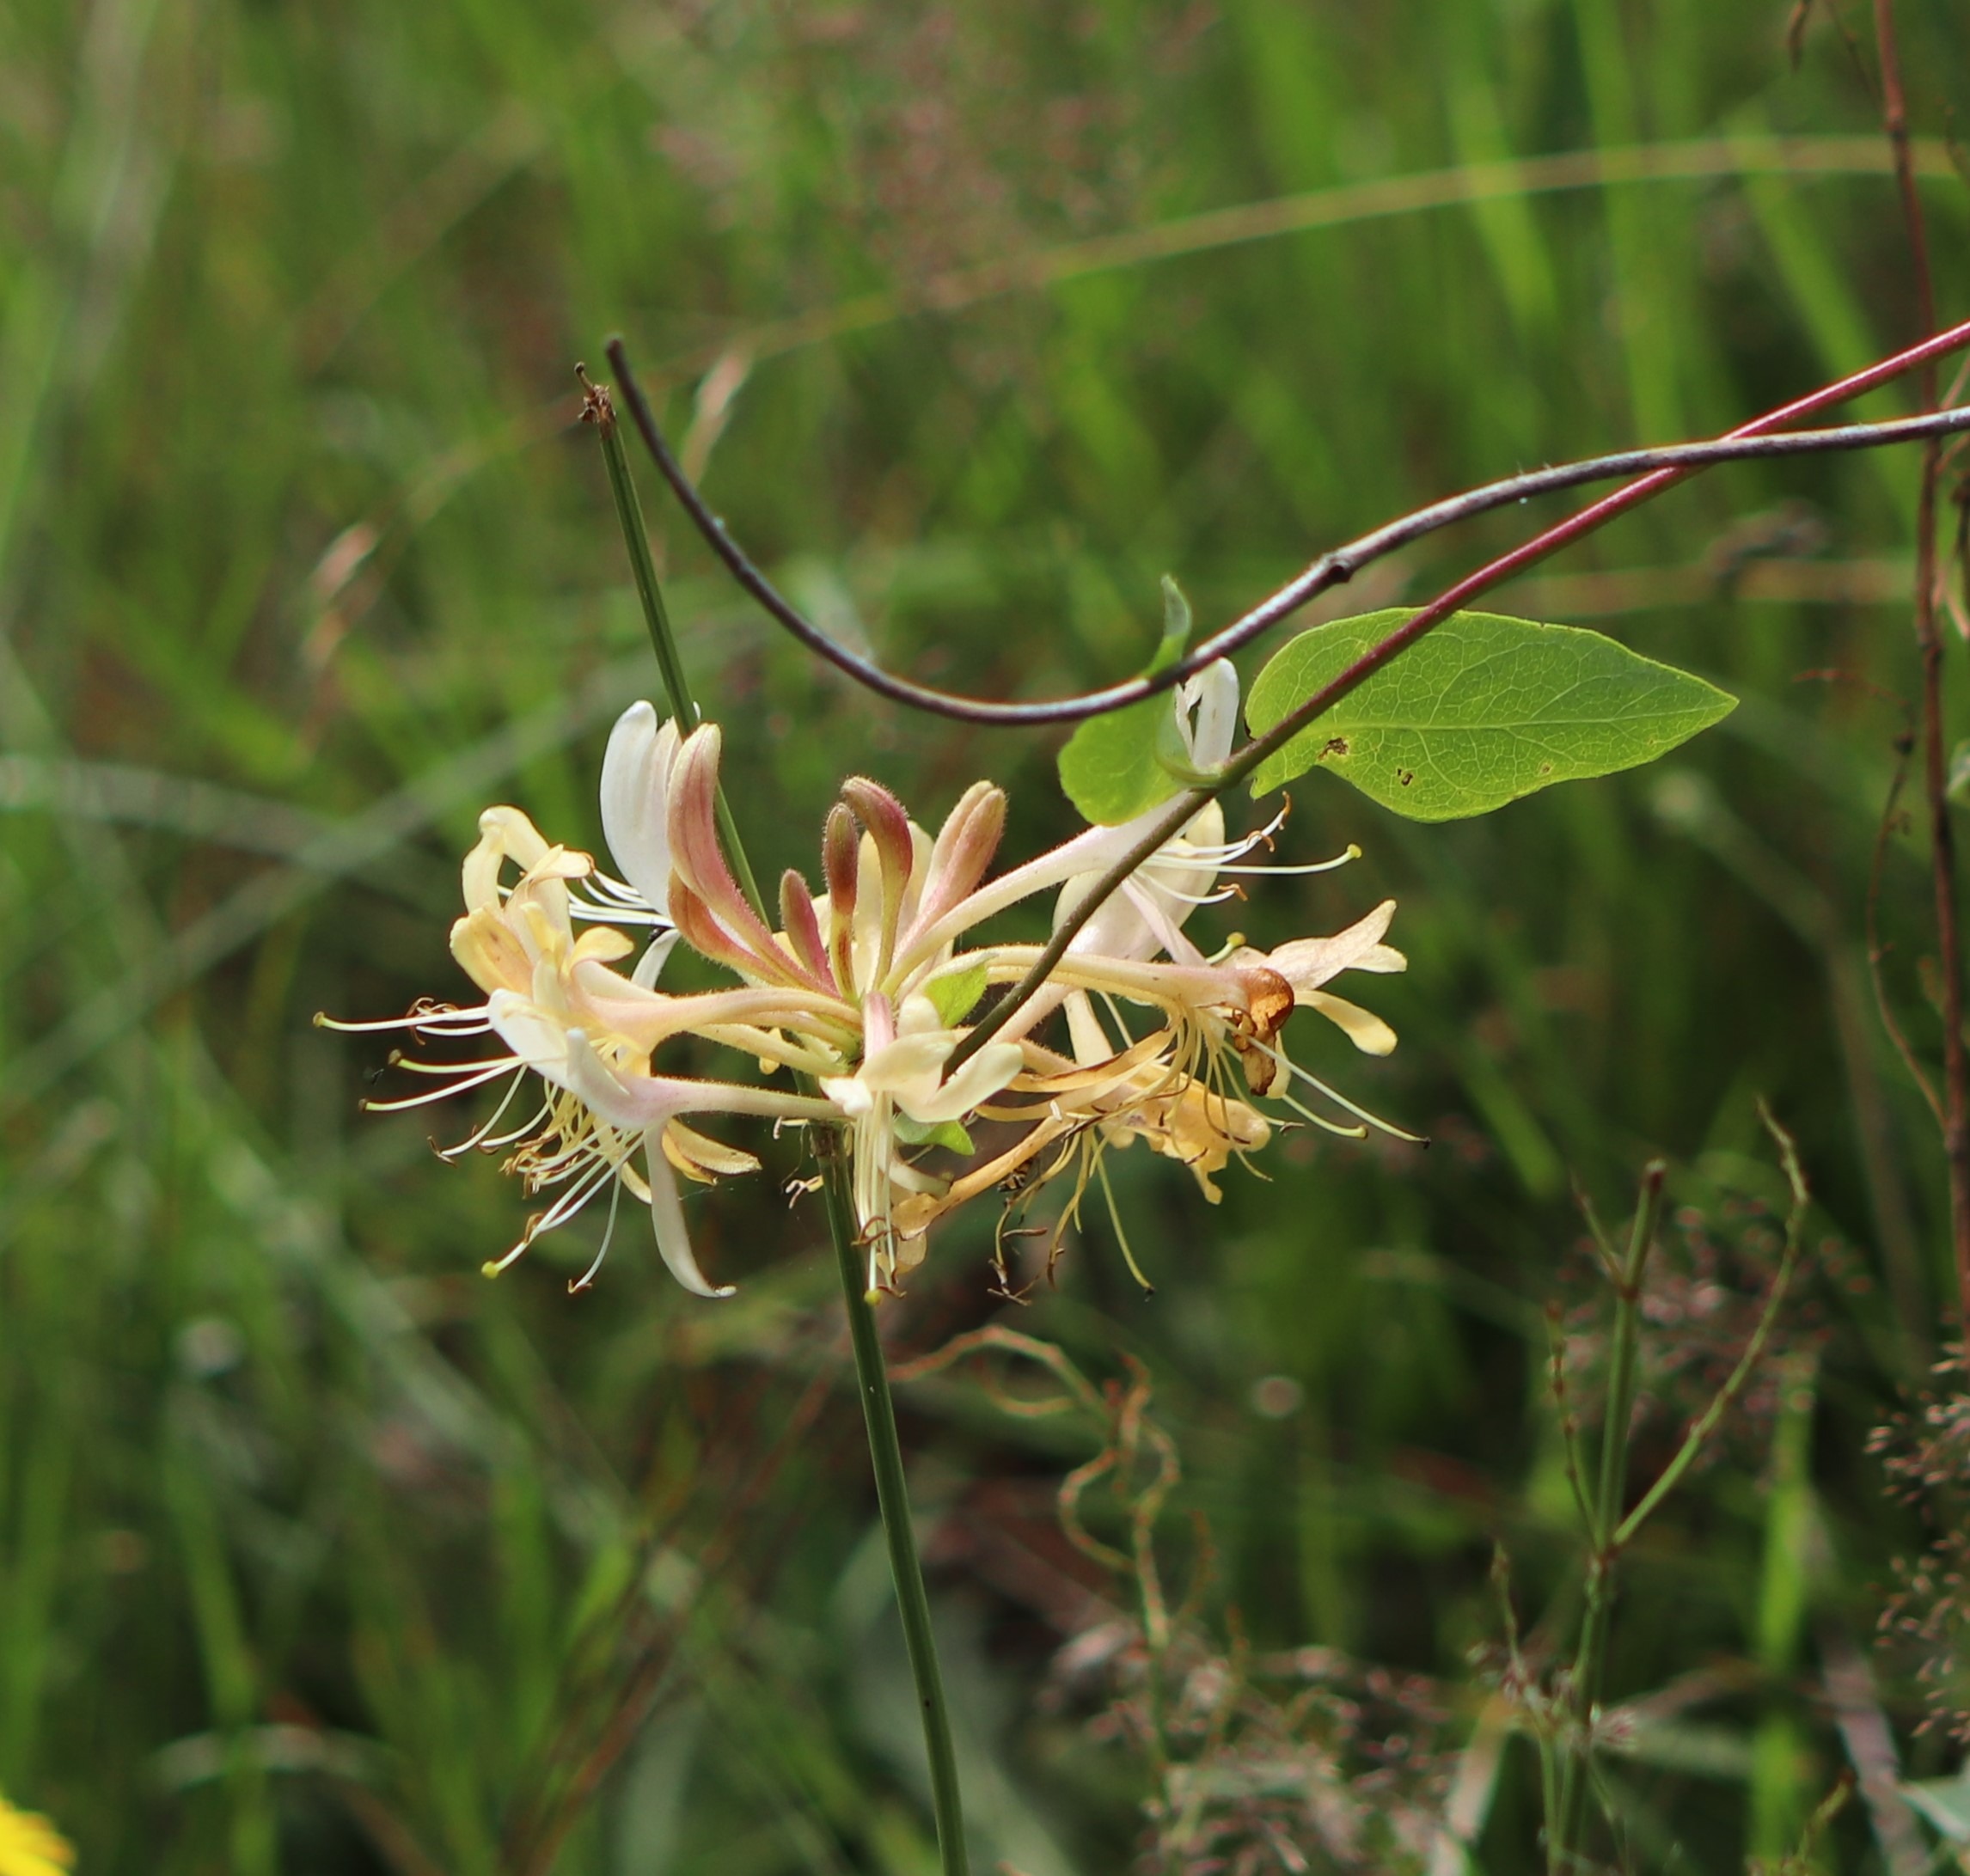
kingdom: Plantae
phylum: Tracheophyta
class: Magnoliopsida
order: Dipsacales
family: Caprifoliaceae
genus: Lonicera
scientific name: Lonicera periclymenum
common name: Almindelig gedeblad
